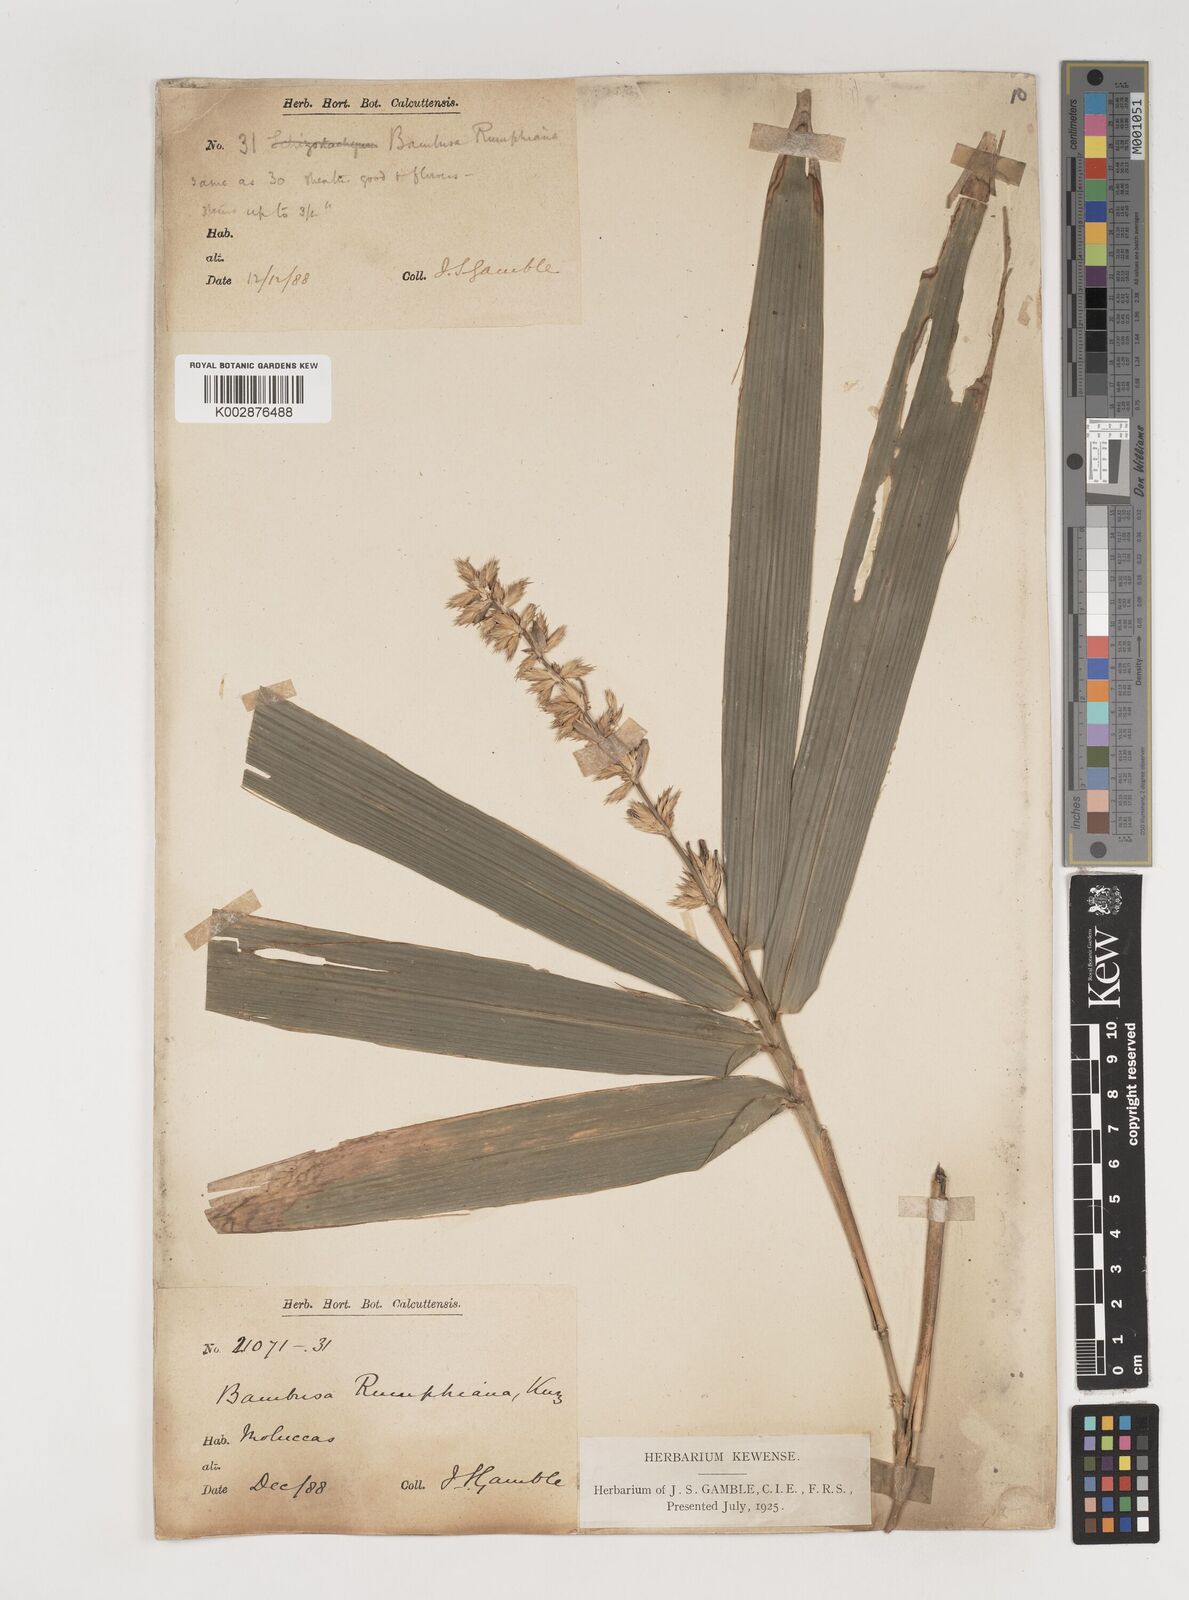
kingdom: Plantae
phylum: Tracheophyta
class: Liliopsida
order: Poales
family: Poaceae
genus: Neololeba
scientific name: Neololeba amahussana
